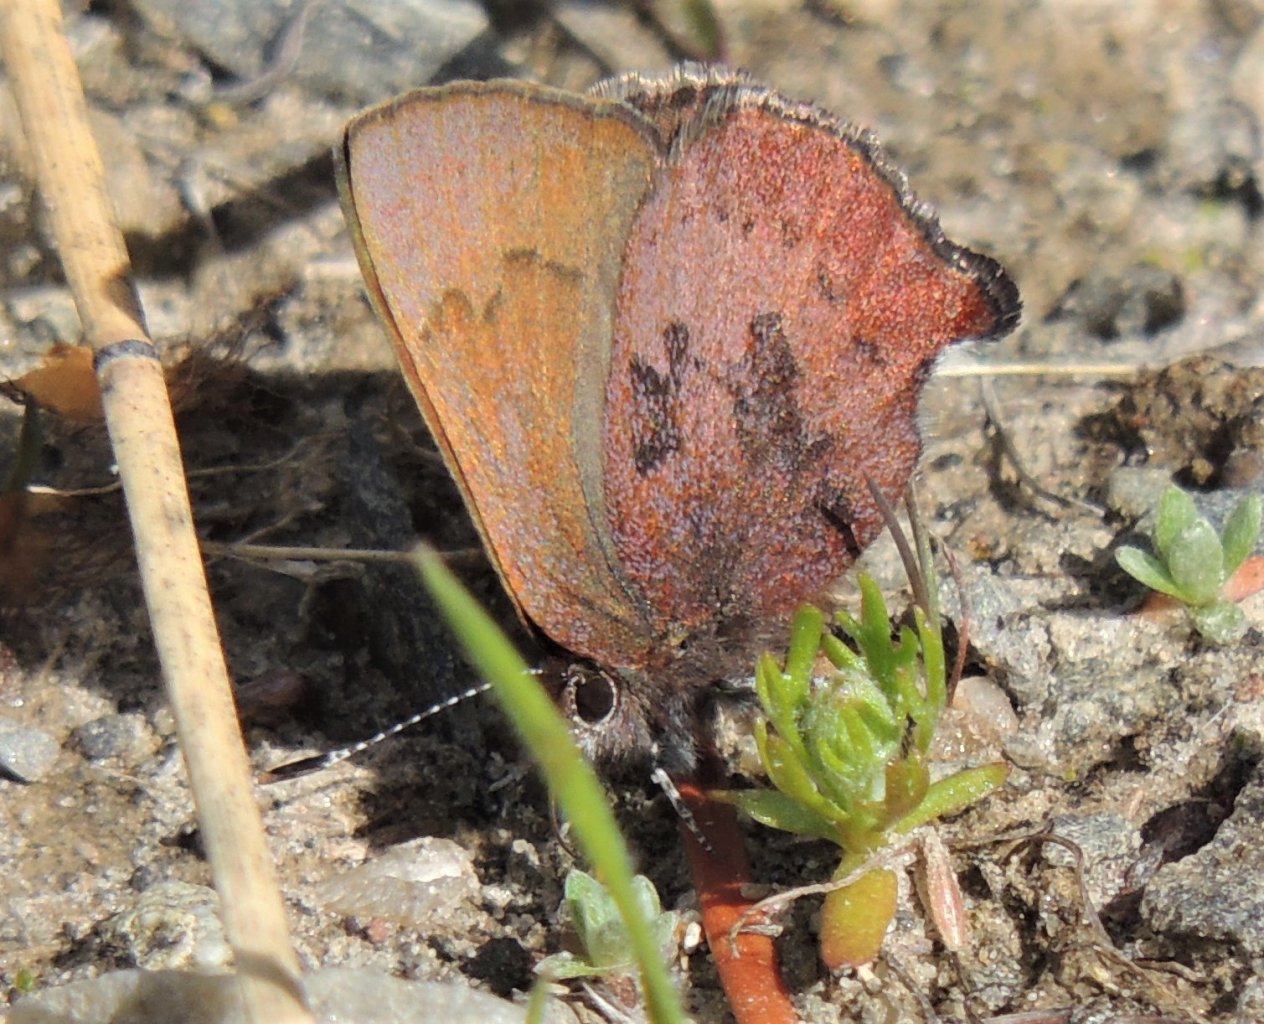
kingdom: Animalia
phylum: Arthropoda
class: Insecta
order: Lepidoptera
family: Lycaenidae
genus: Incisalia
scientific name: Incisalia irioides
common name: Brown Elfin
